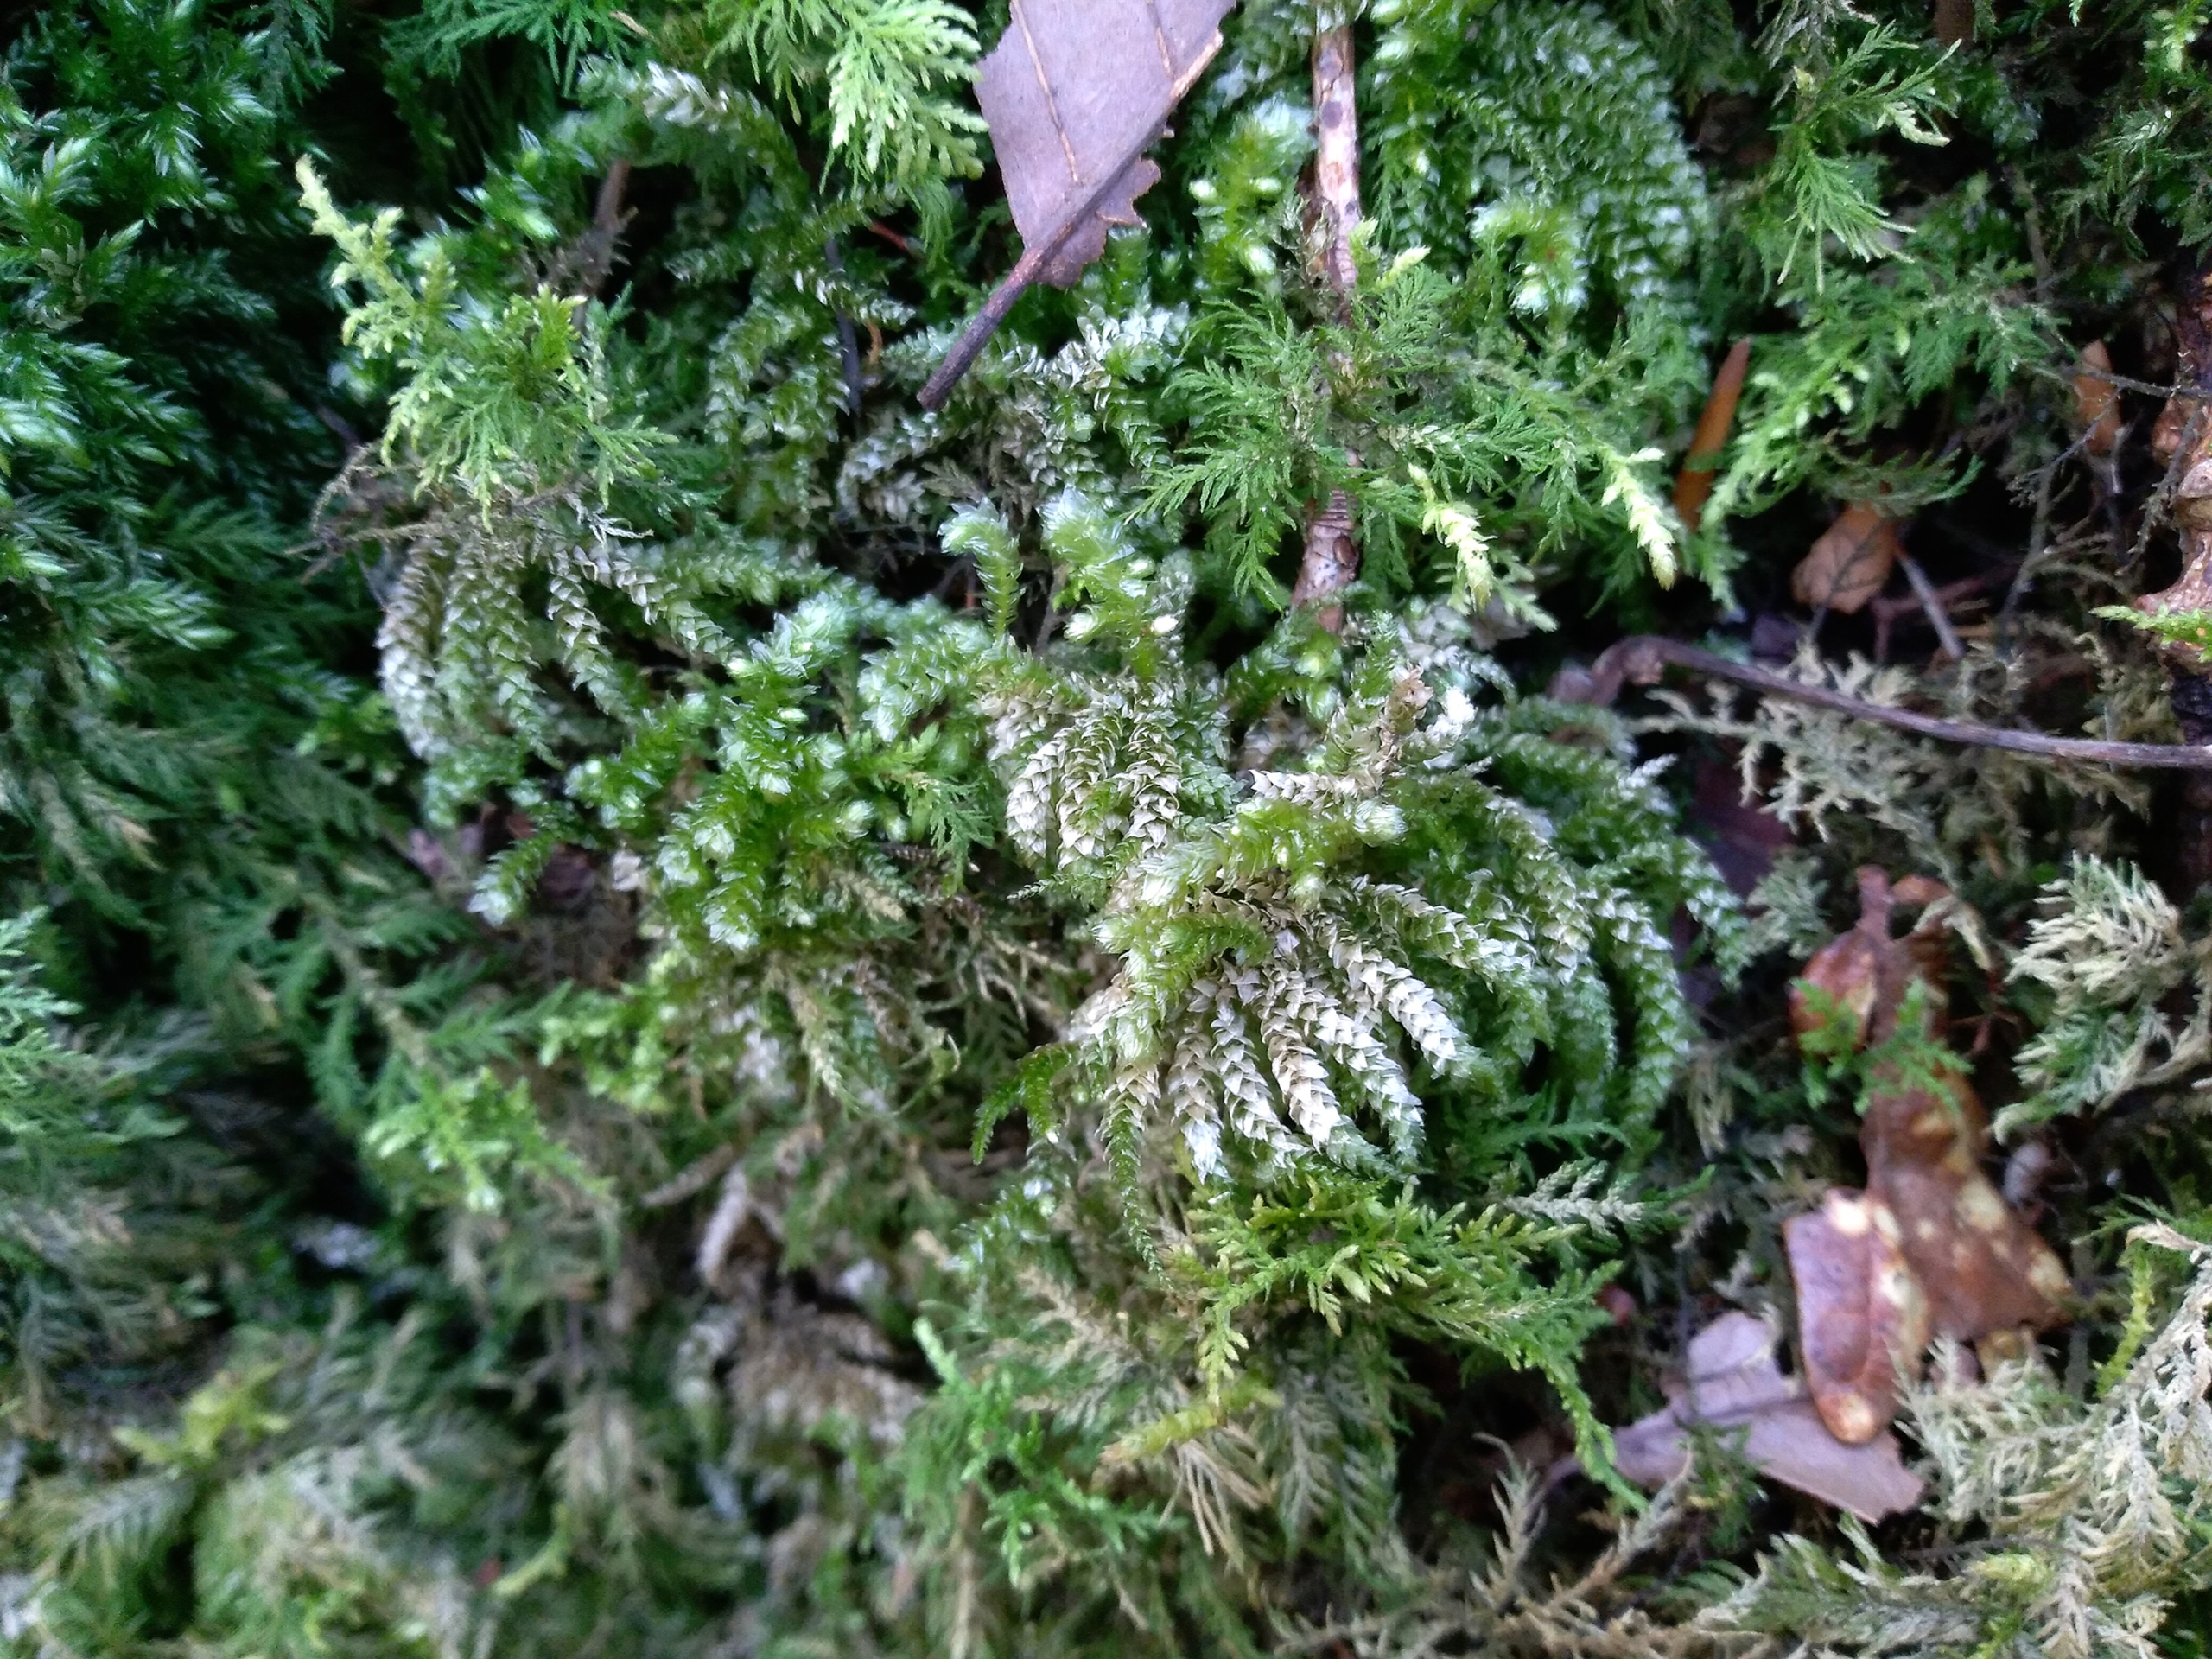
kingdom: Plantae
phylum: Bryophyta
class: Bryopsida
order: Hypnales
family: Brachytheciaceae
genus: Eurhynchium
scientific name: Eurhynchium angustirete
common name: Stor næbmos
